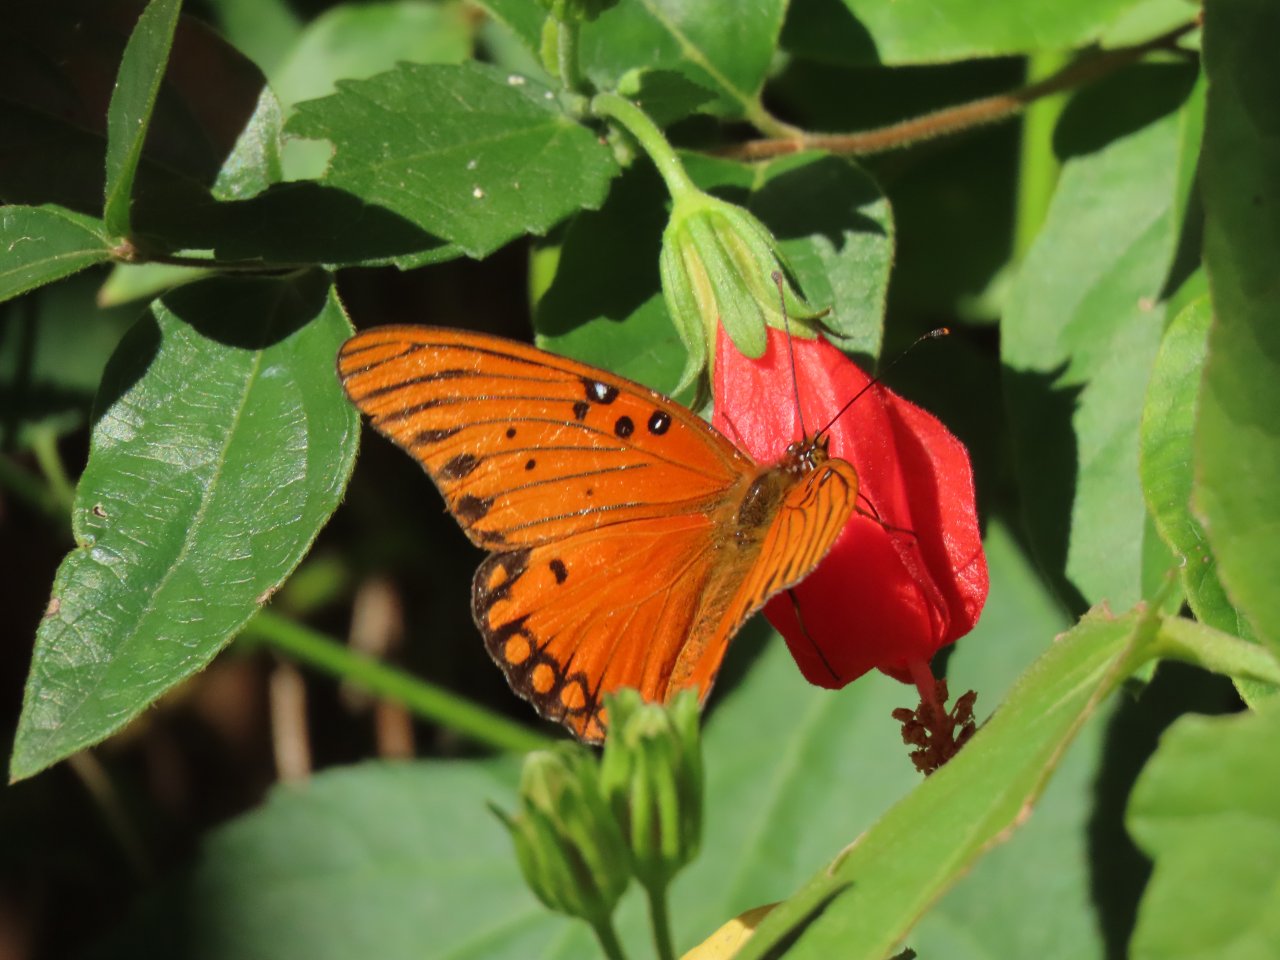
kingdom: Animalia
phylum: Arthropoda
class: Insecta
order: Lepidoptera
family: Nymphalidae
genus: Dione
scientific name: Dione vanillae
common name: Gulf Fritillary
